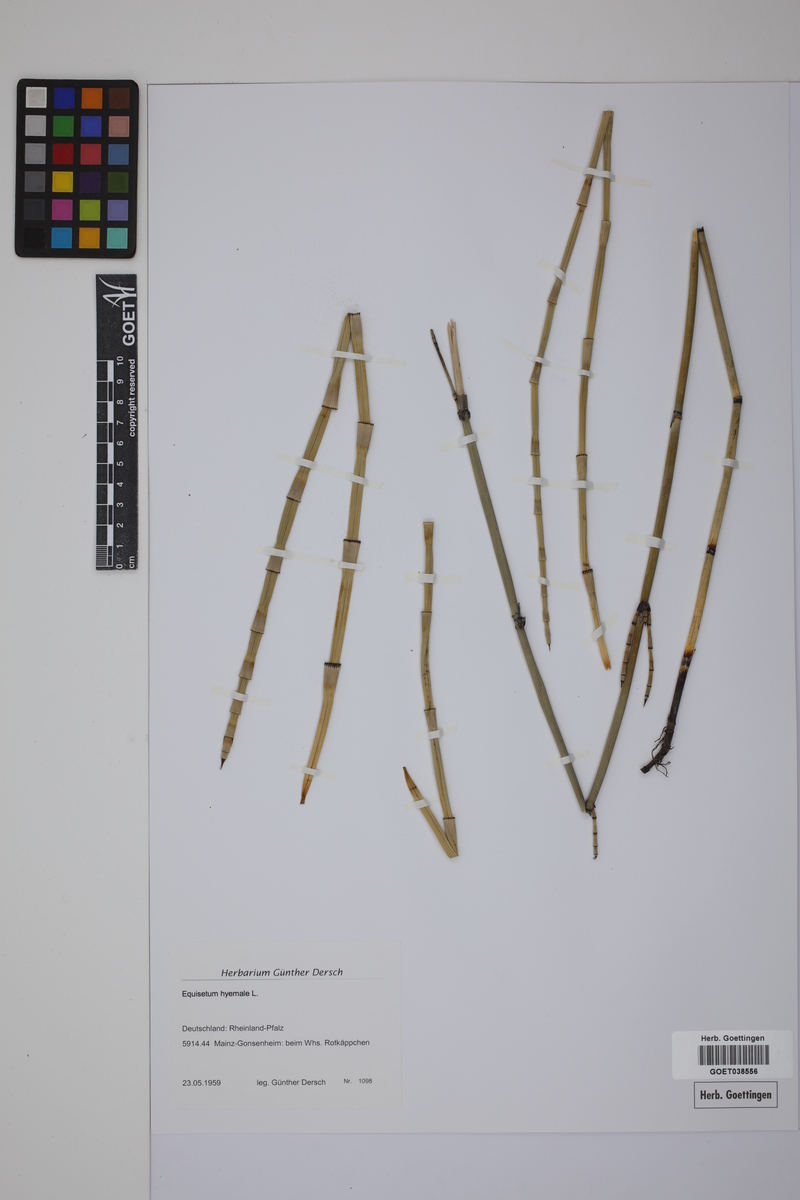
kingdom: Plantae
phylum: Tracheophyta
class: Polypodiopsida
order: Equisetales
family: Equisetaceae
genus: Equisetum
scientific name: Equisetum hyemale
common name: Rough horsetail
